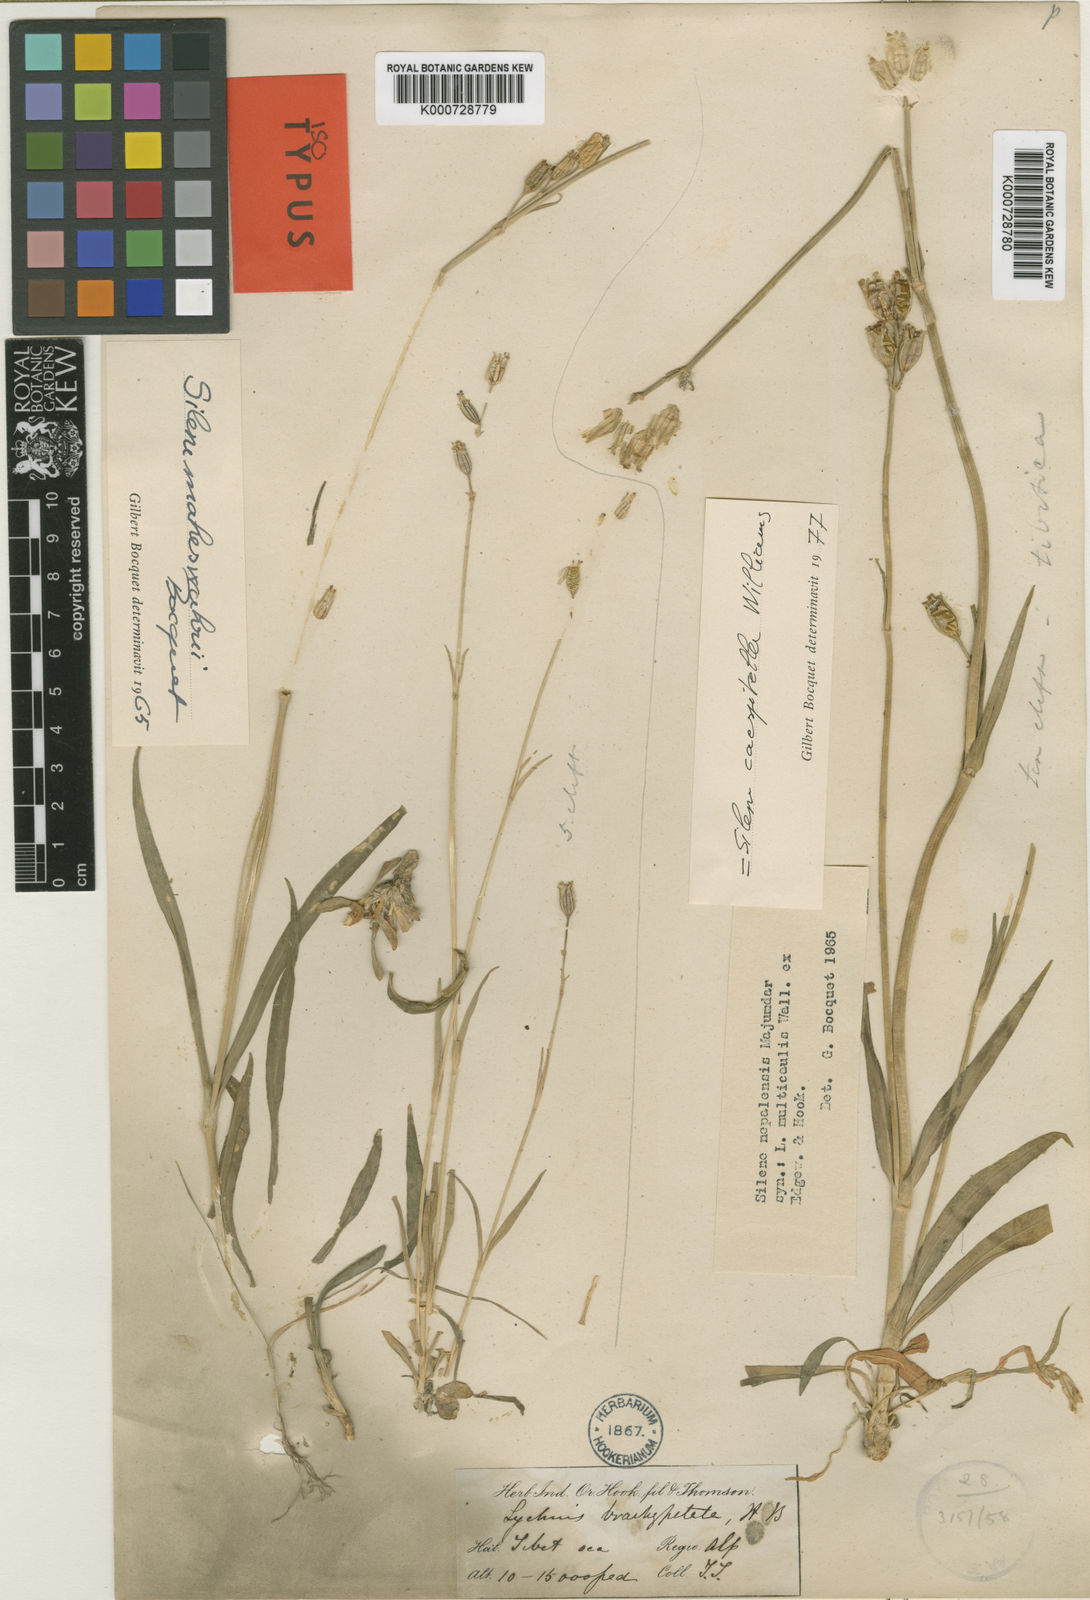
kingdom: Plantae
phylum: Tracheophyta
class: Magnoliopsida
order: Caryophyllales
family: Caryophyllaceae
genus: Silene
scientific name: Silene caespitella
